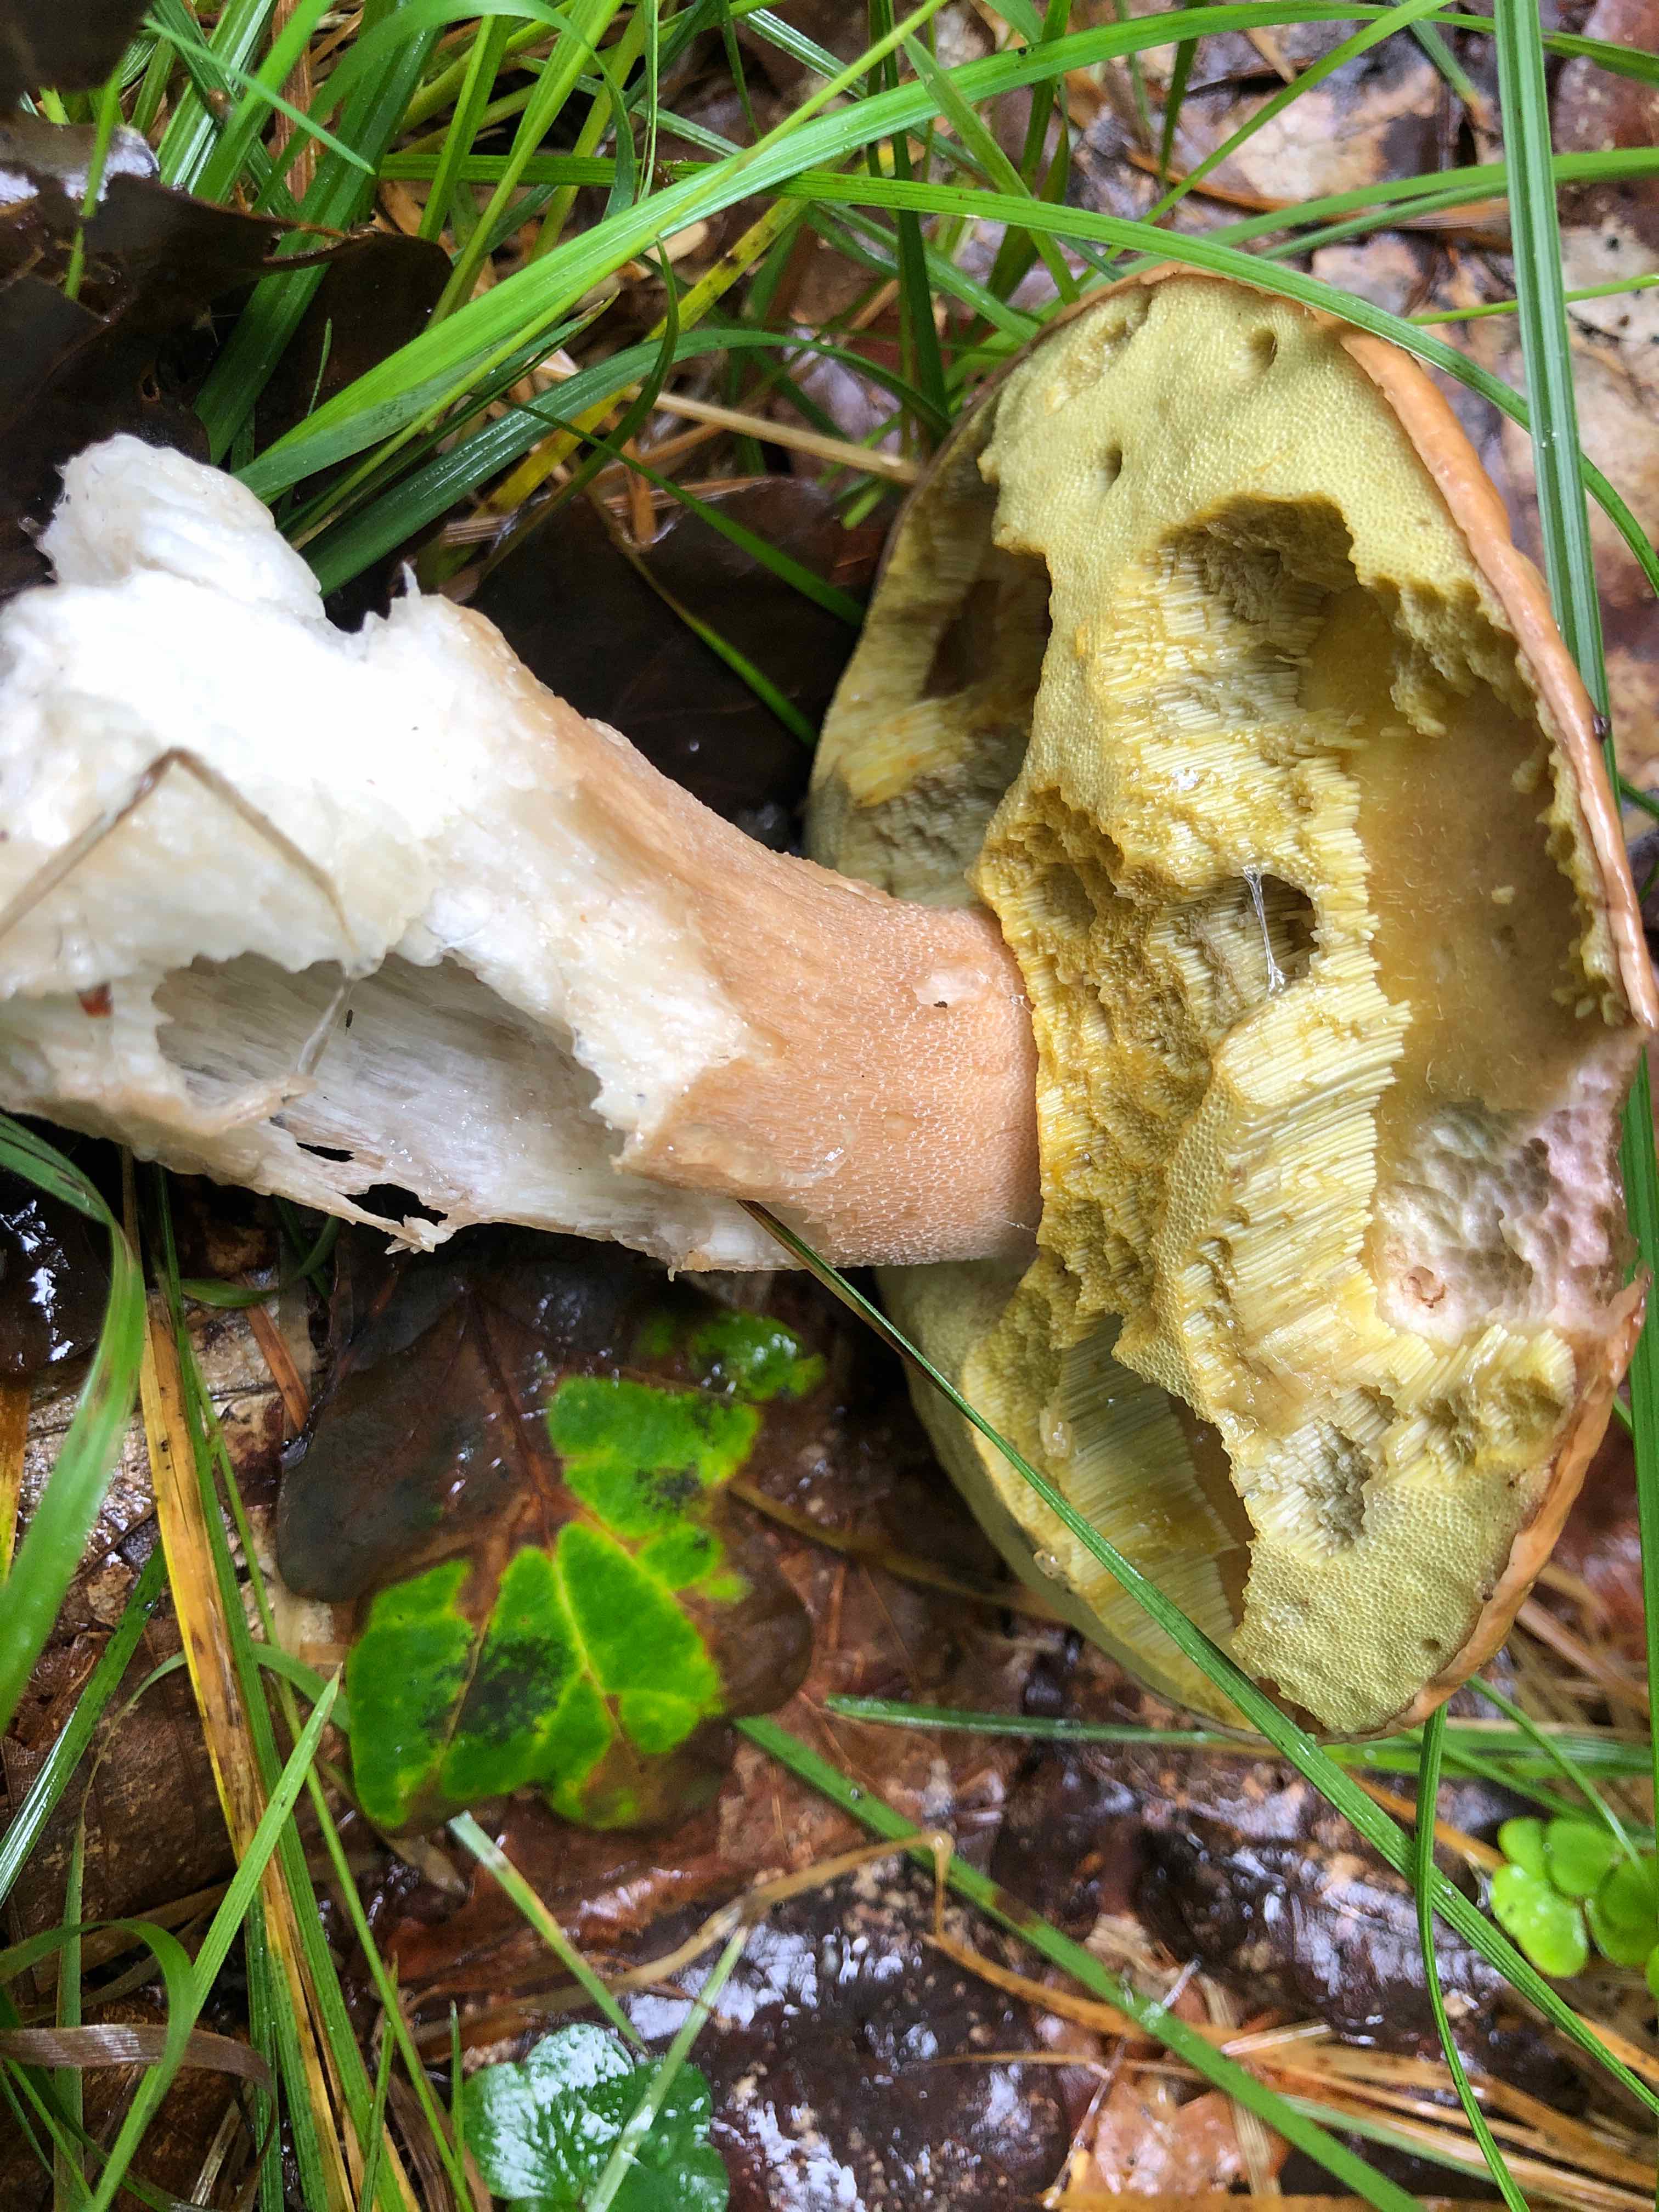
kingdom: Fungi
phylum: Basidiomycota
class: Agaricomycetes
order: Boletales
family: Boletaceae
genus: Boletus
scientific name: Boletus edulis
